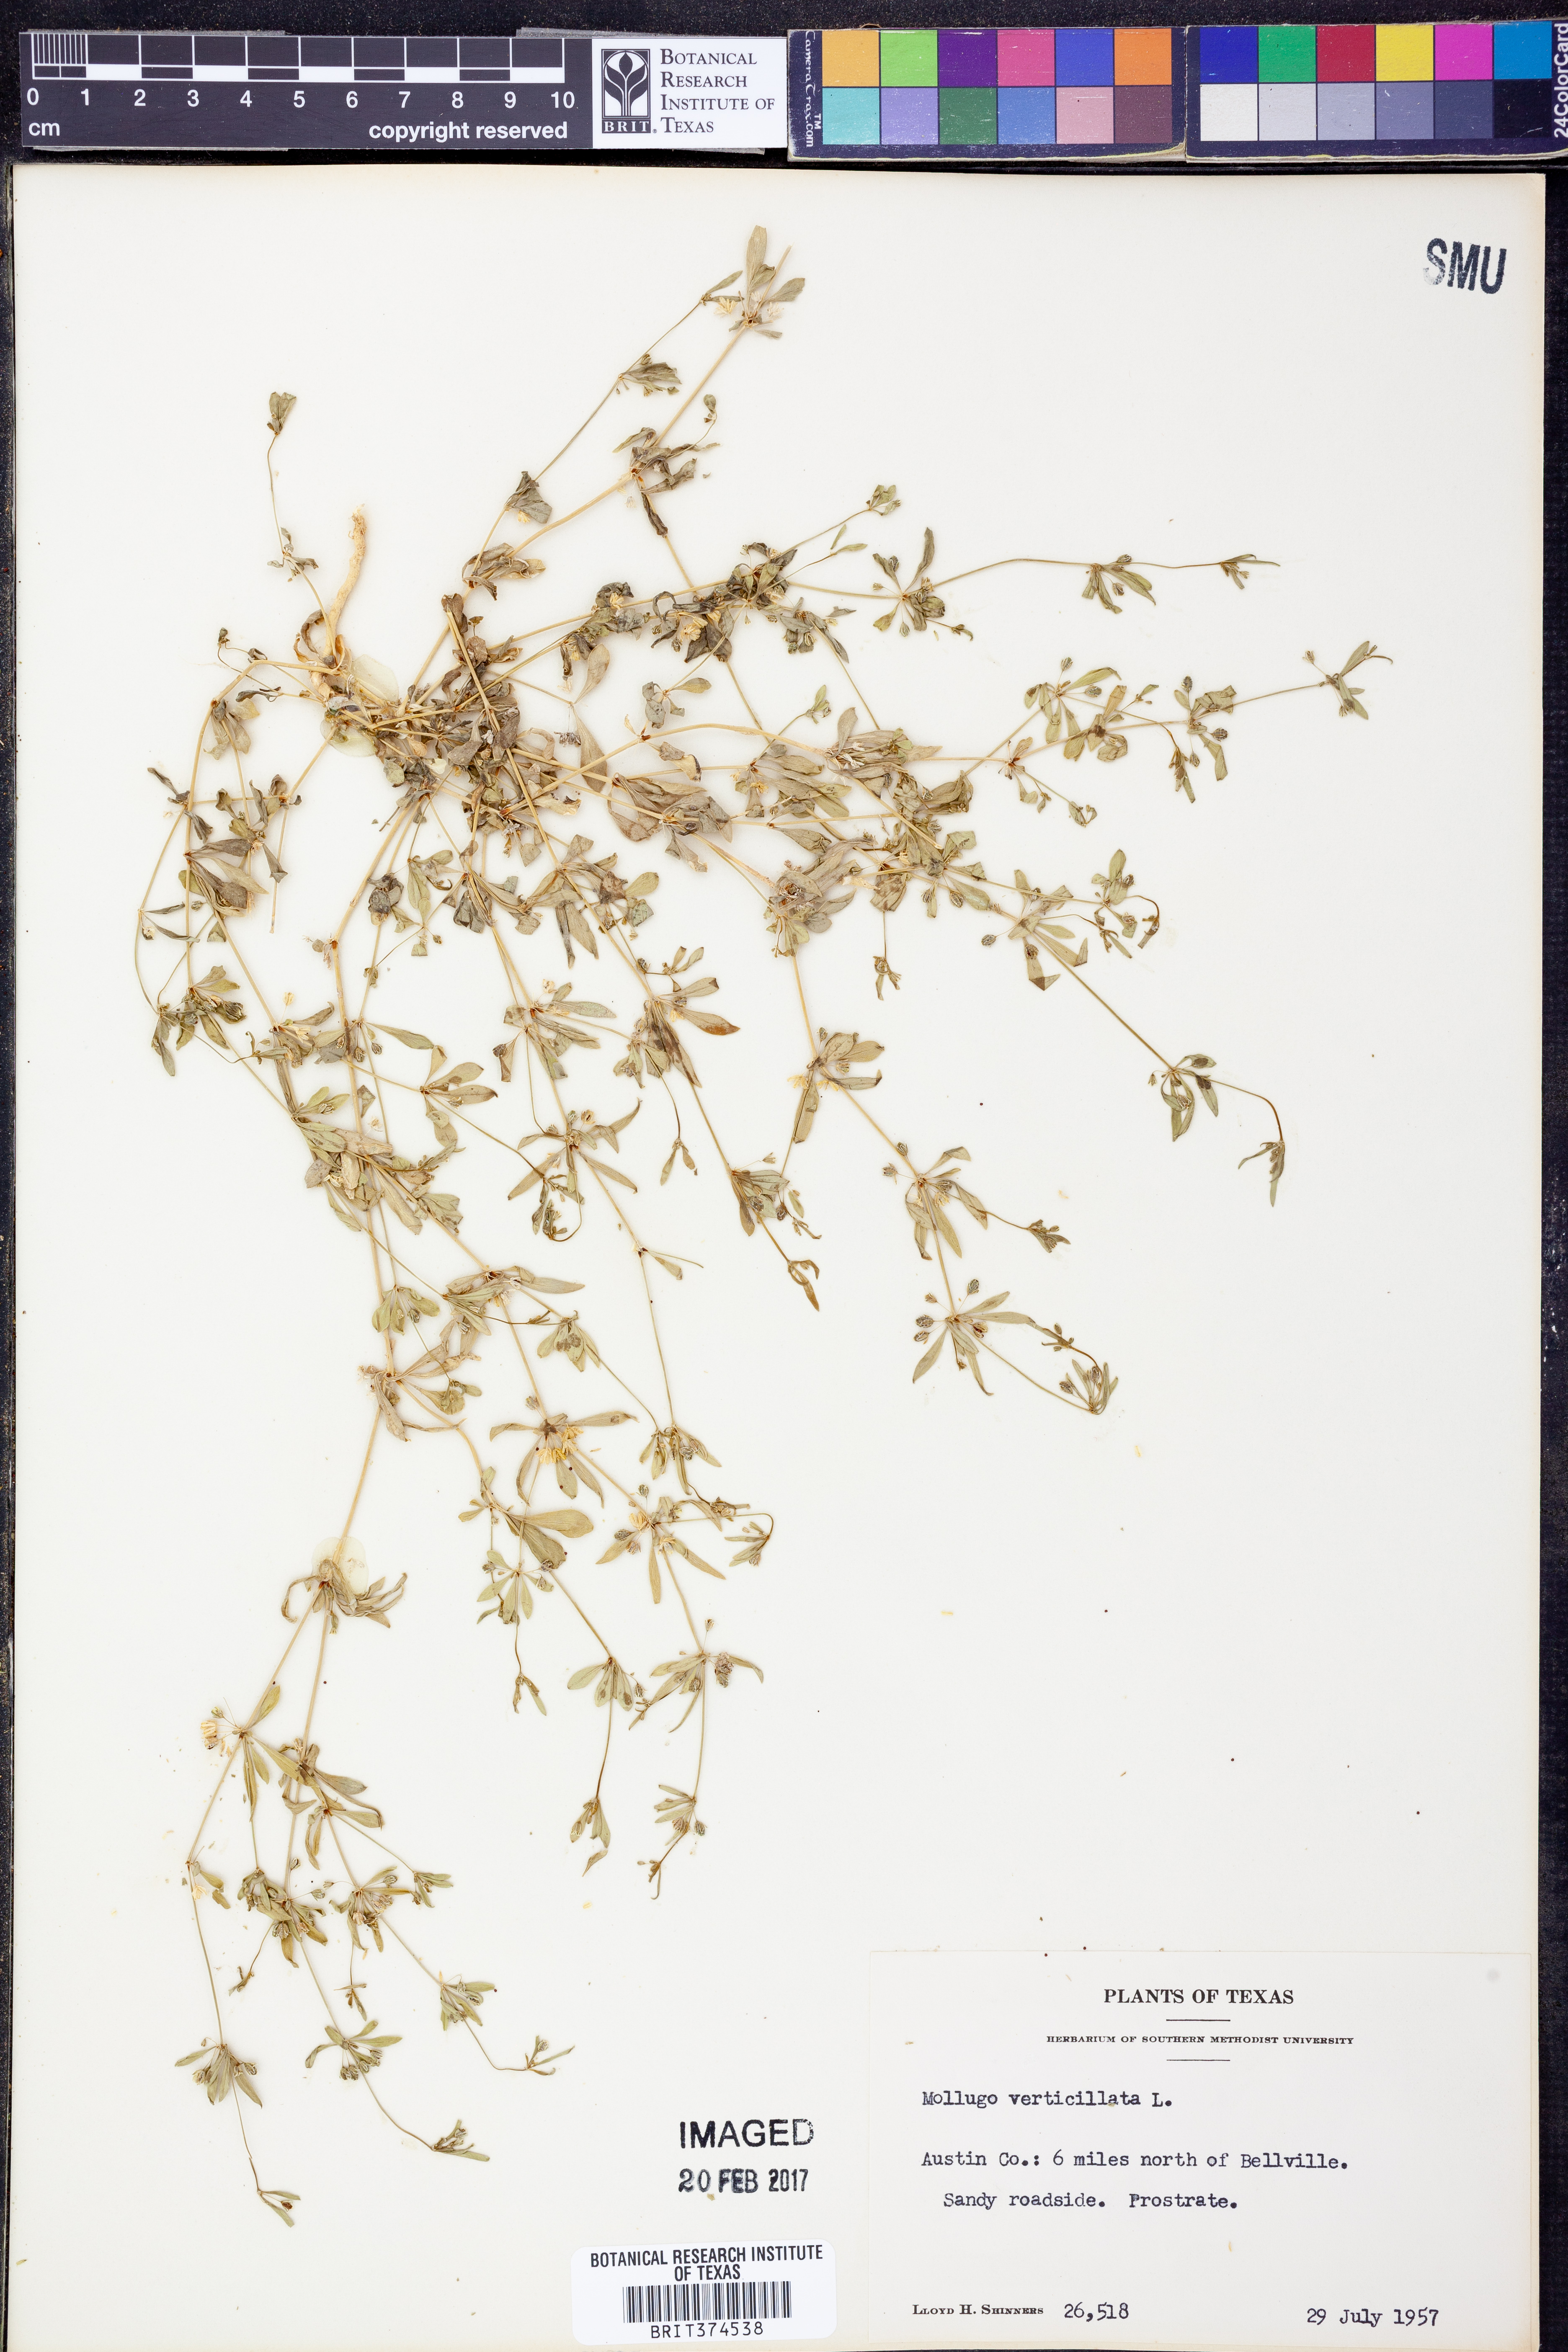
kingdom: Plantae
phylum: Tracheophyta
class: Magnoliopsida
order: Caryophyllales
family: Molluginaceae
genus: Mollugo
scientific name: Mollugo verticillata
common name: Green carpetweed
